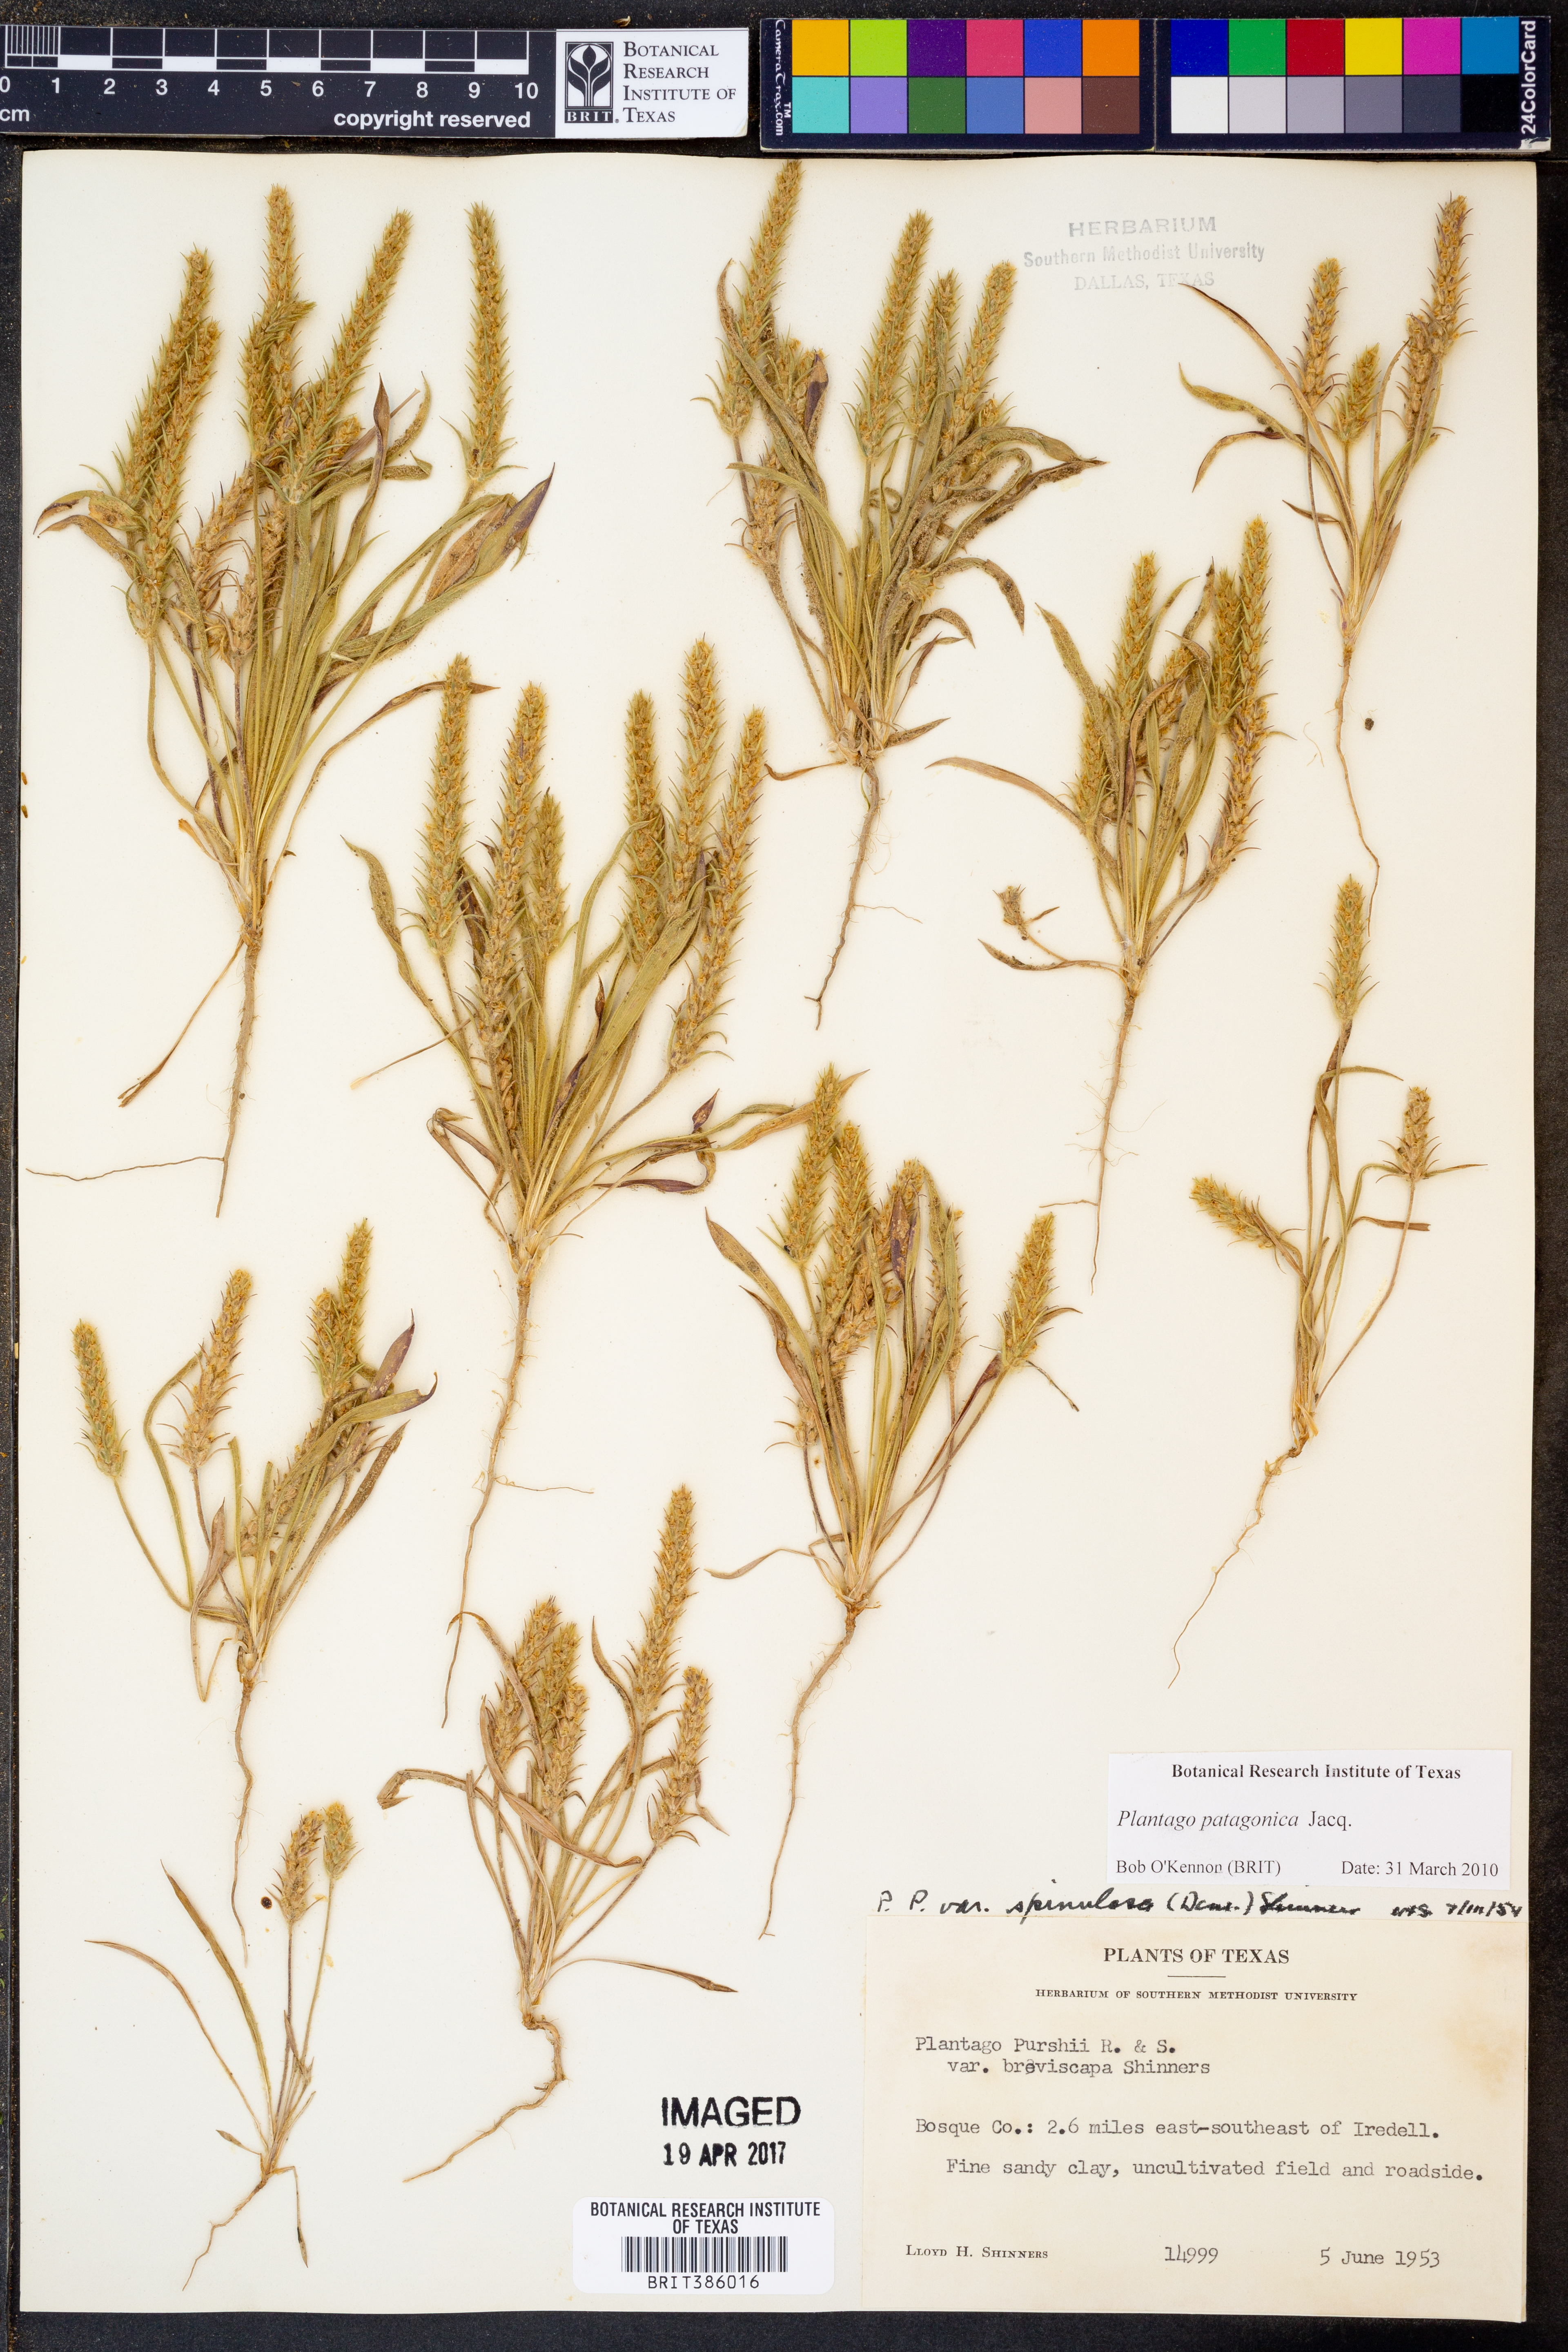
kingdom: Plantae
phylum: Tracheophyta
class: Magnoliopsida
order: Lamiales
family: Plantaginaceae
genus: Plantago
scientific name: Plantago patagonica
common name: Patagonia indian-wheat
